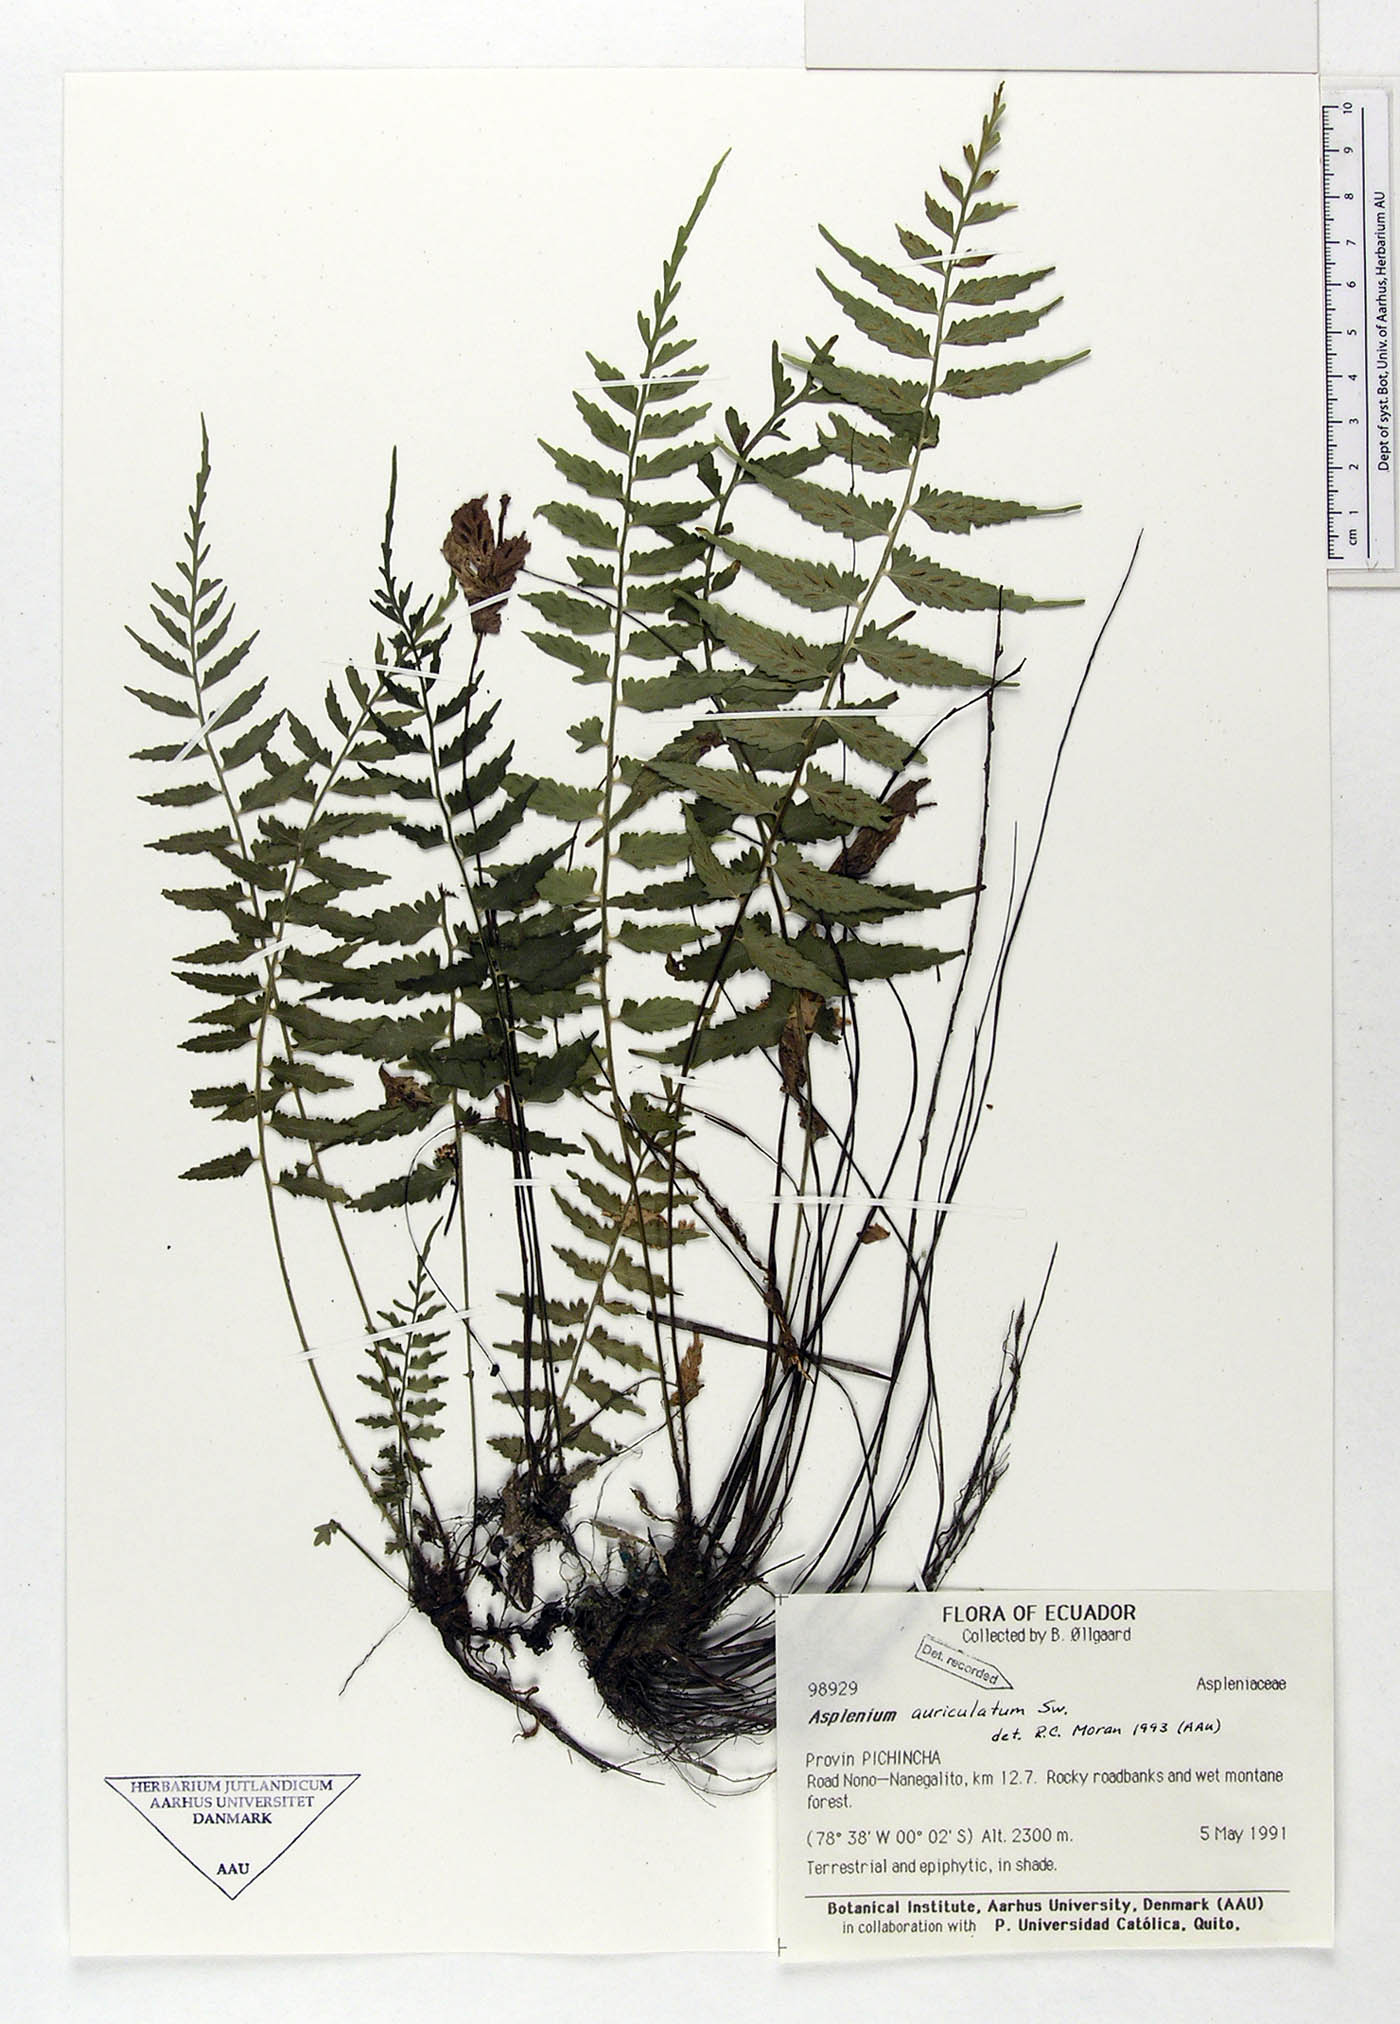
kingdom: Plantae
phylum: Tracheophyta
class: Polypodiopsida
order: Polypodiales
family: Aspleniaceae
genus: Asplenium
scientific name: Asplenium auriculatum
